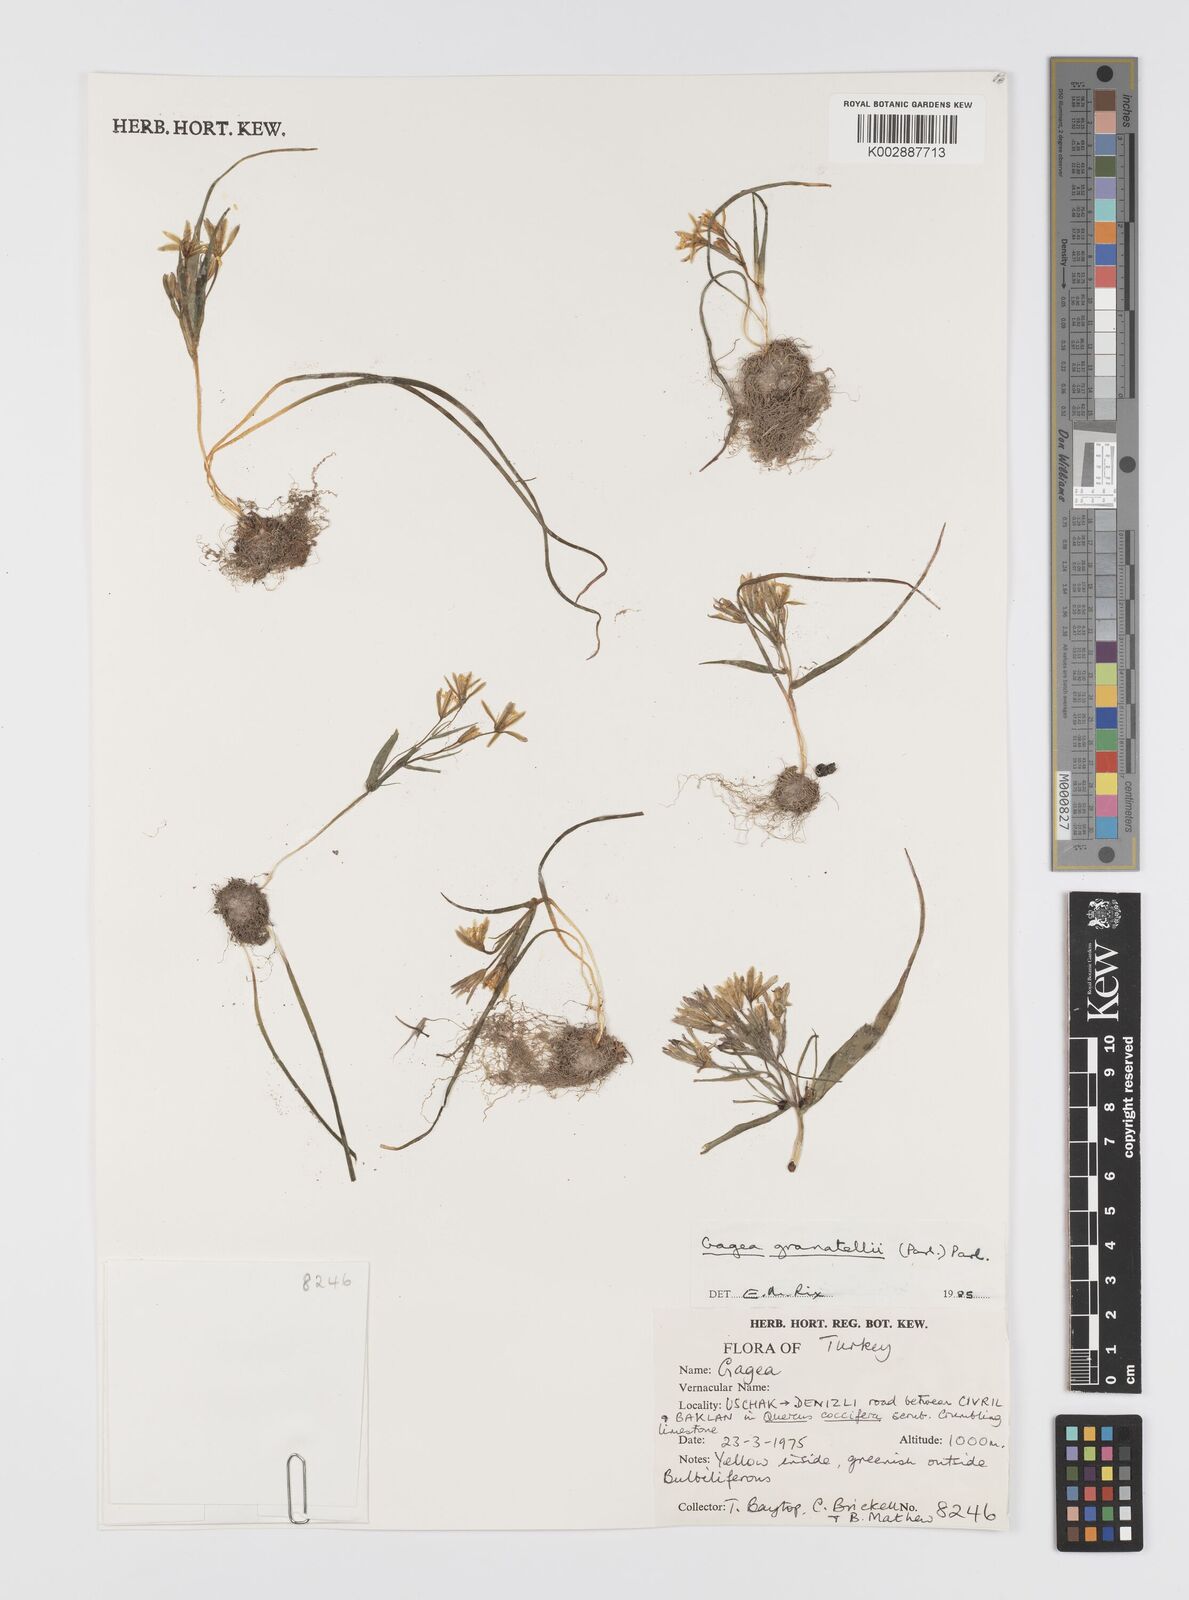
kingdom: Plantae
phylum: Tracheophyta
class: Liliopsida
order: Liliales
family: Liliaceae
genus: Gagea
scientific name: Gagea granatellii
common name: Granatelli’s gagea
